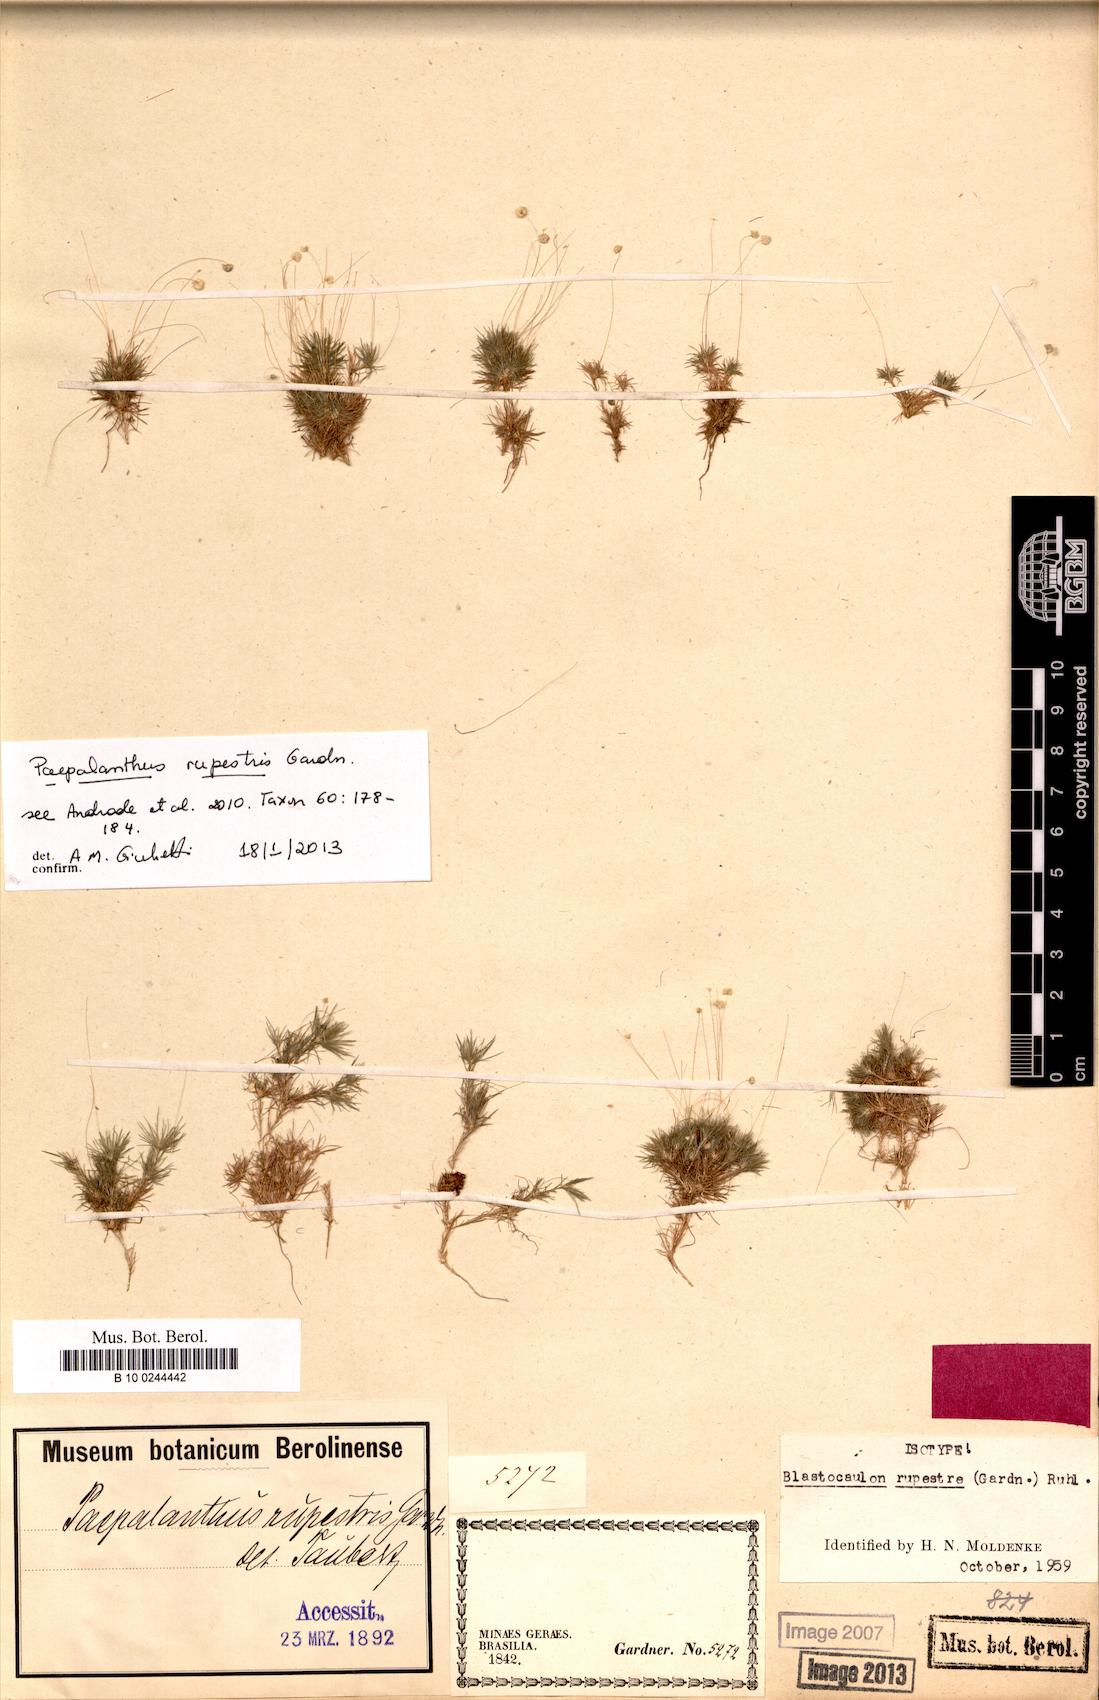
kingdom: Plantae
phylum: Tracheophyta
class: Liliopsida
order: Poales
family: Eriocaulaceae
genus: Paepalanthus
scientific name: Paepalanthus rupestris
